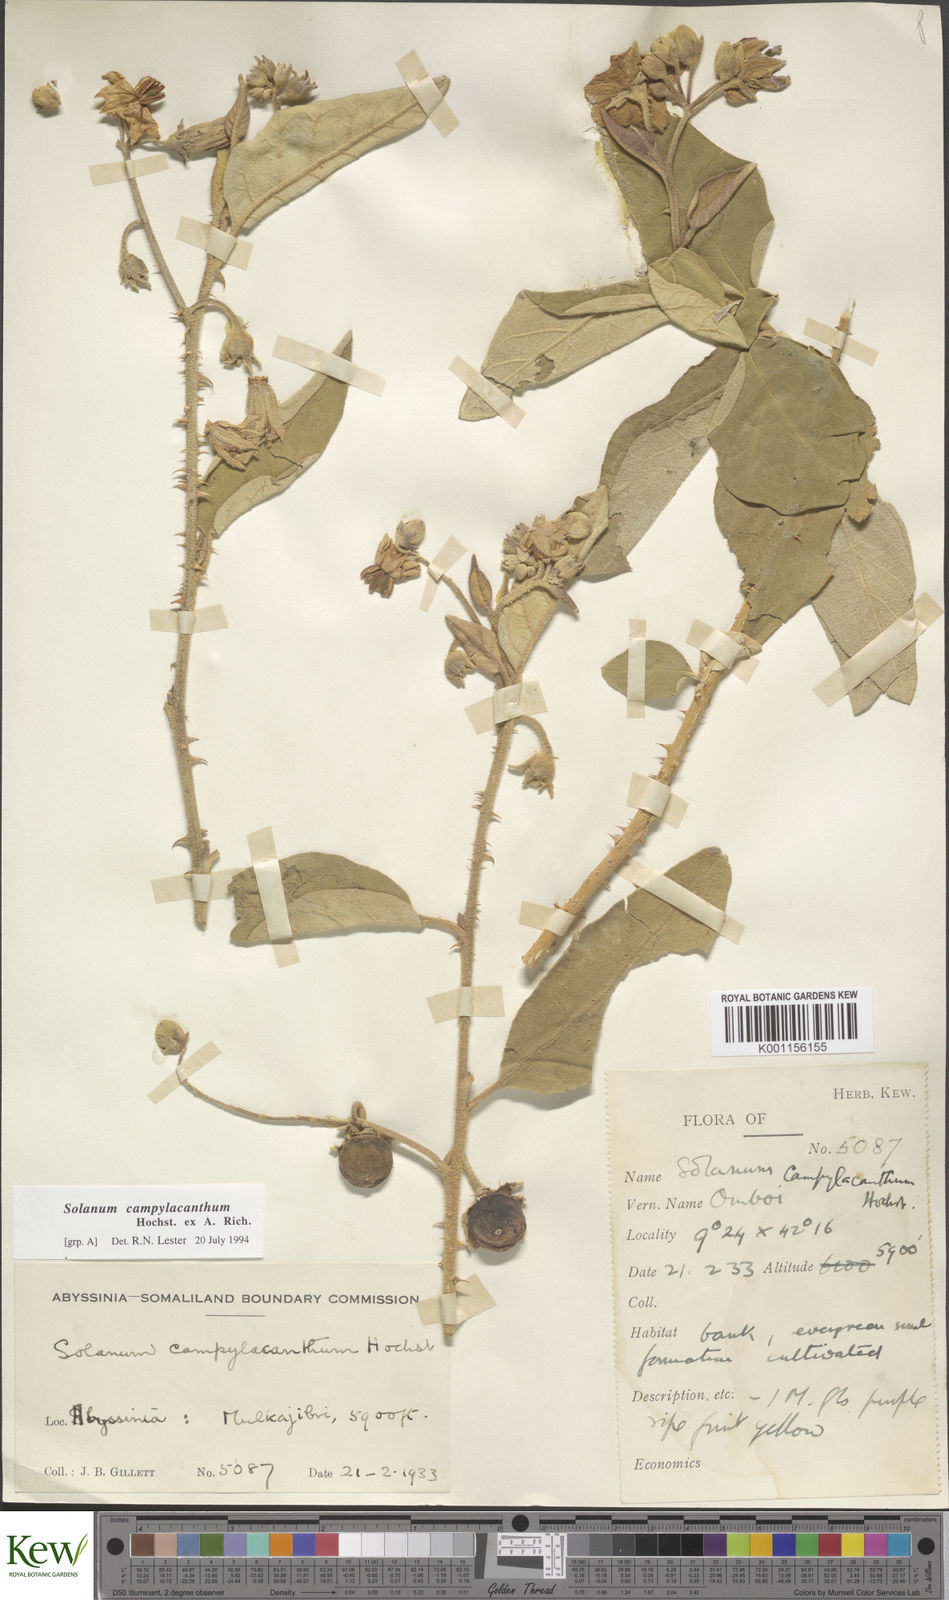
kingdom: Plantae
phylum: Tracheophyta
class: Magnoliopsida
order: Solanales
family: Solanaceae
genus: Solanum
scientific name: Solanum campylacanthum
